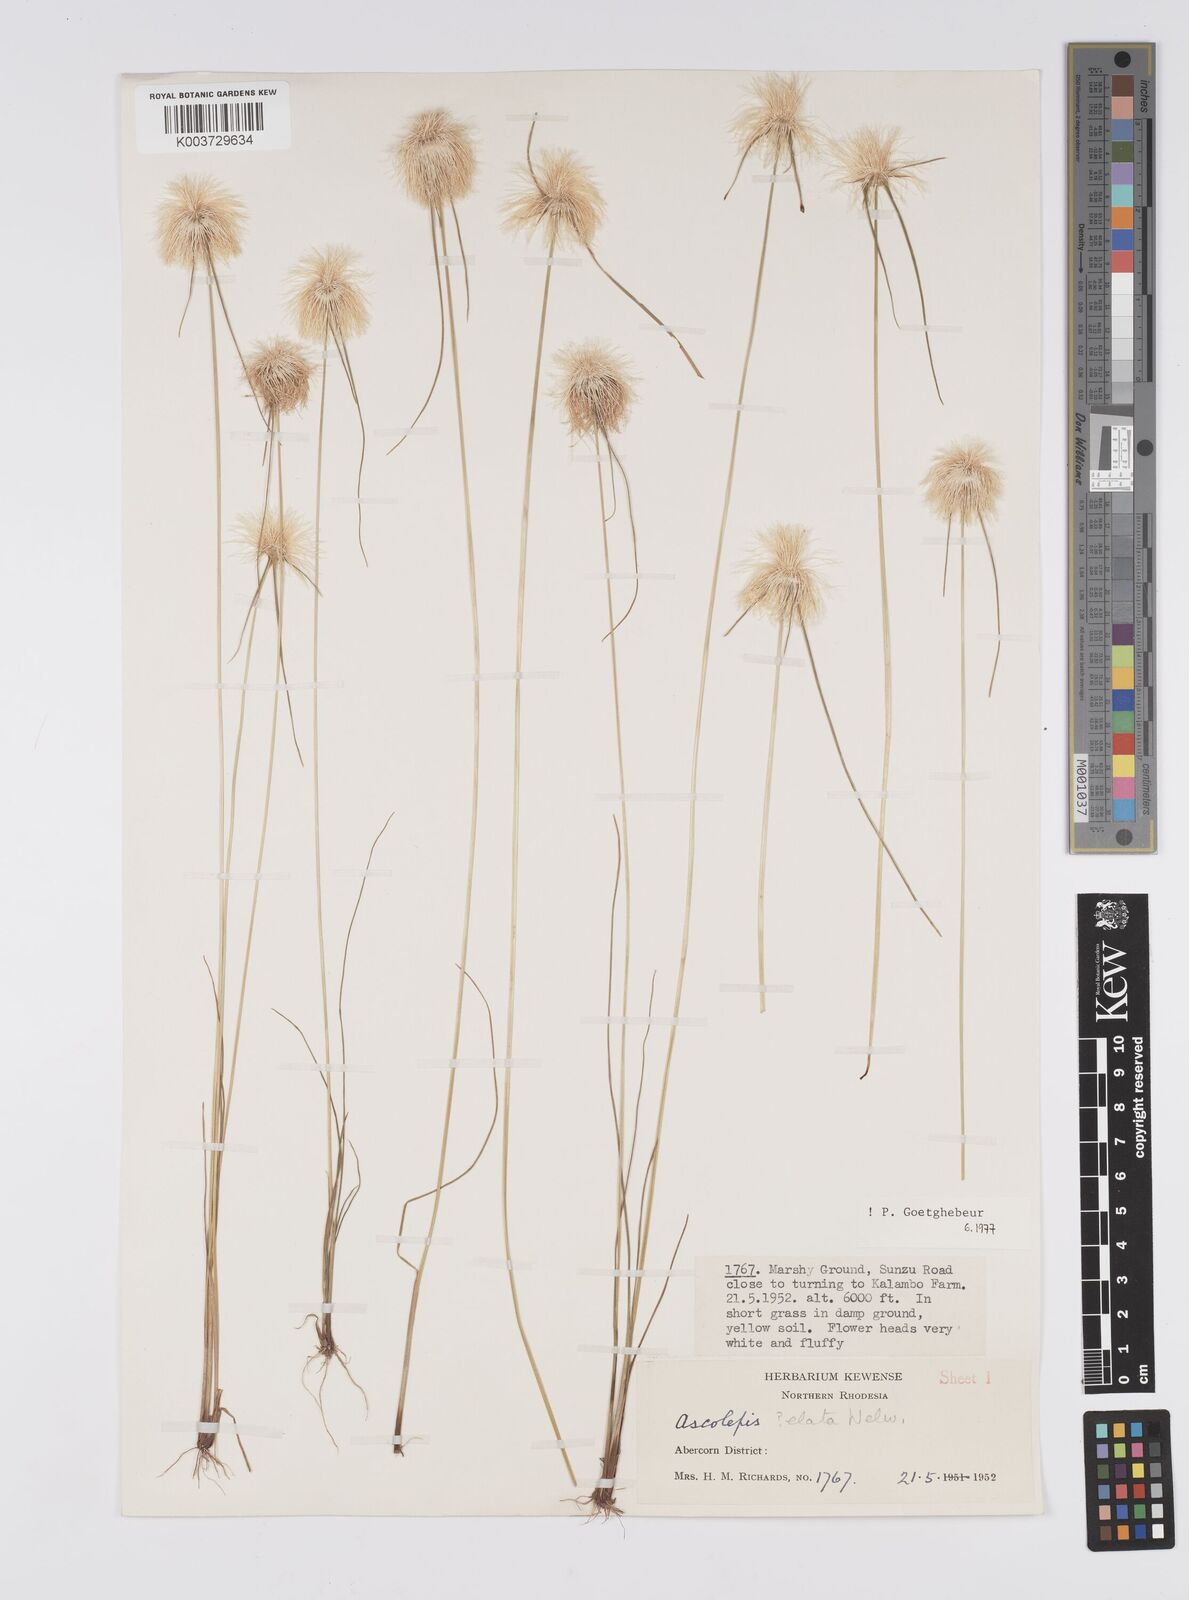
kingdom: Plantae
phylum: Tracheophyta
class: Liliopsida
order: Poales
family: Cyperaceae
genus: Cyperus
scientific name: Cyperus
